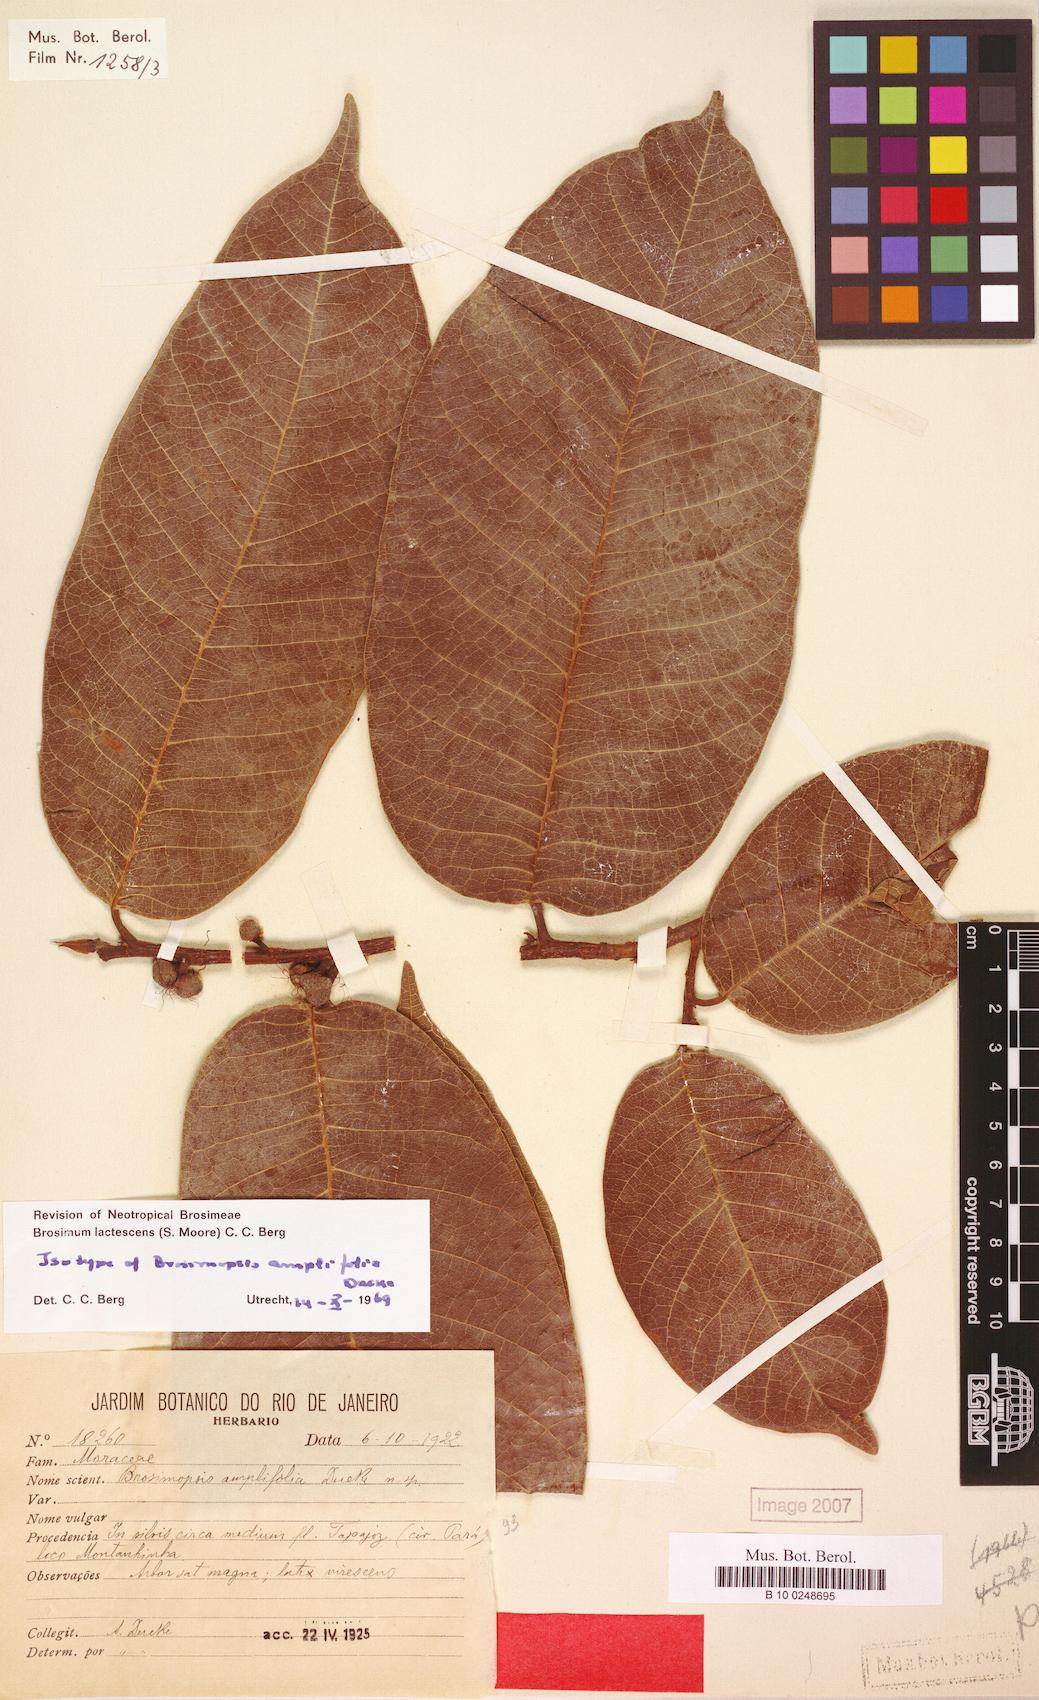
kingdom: Plantae
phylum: Tracheophyta
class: Magnoliopsida
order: Rosales
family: Moraceae
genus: Brosimum
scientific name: Brosimum lactescens
